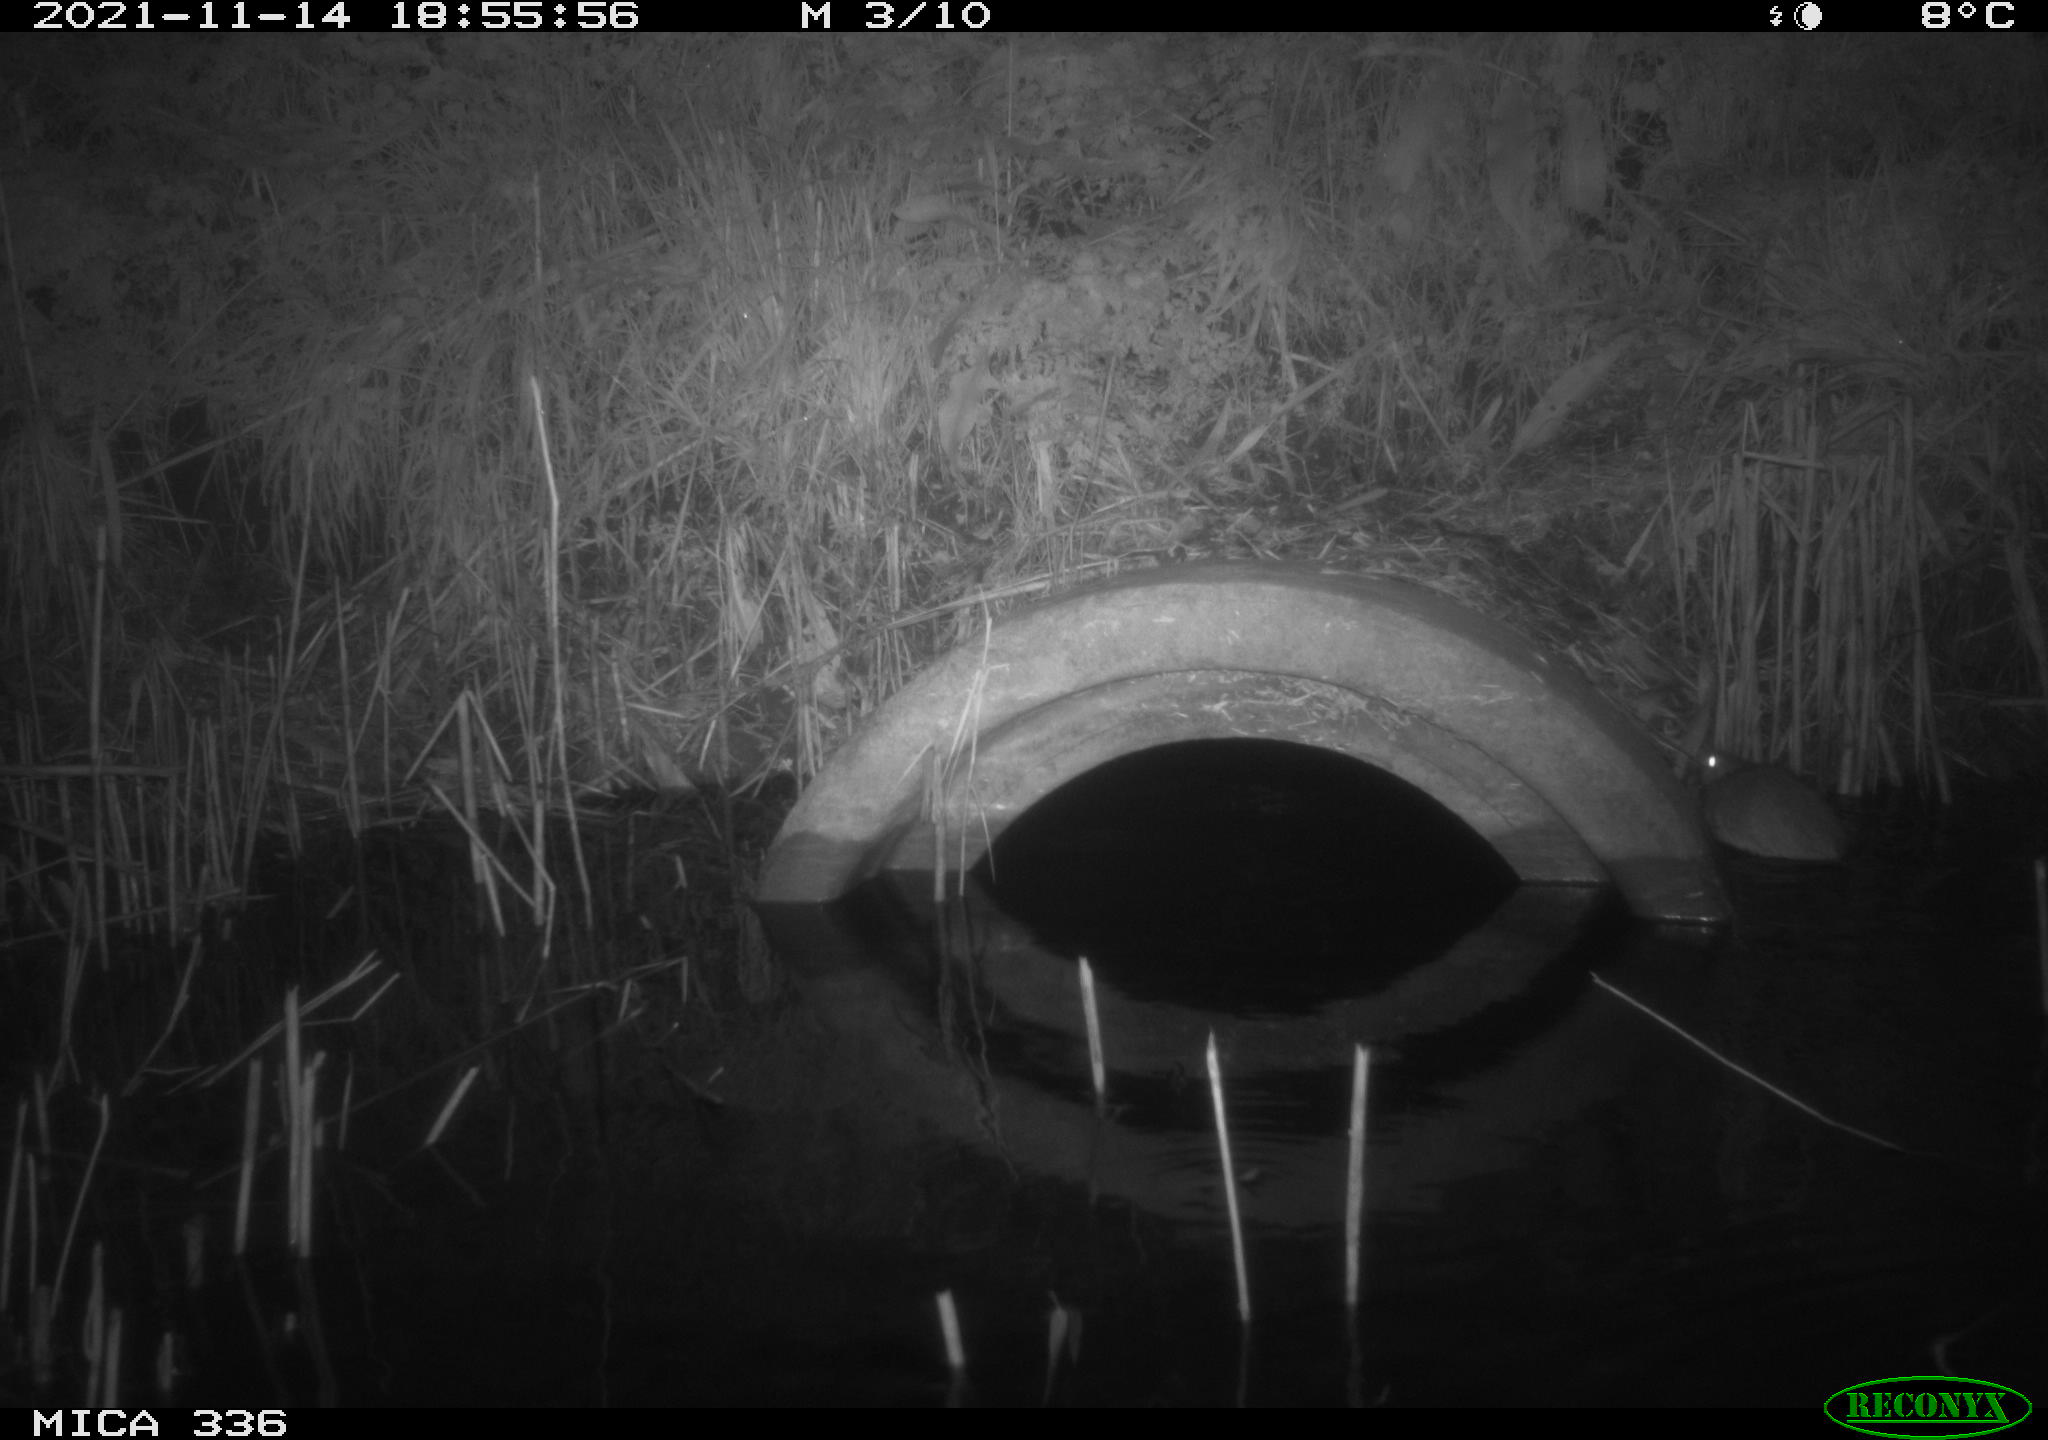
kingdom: Animalia
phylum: Chordata
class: Mammalia
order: Rodentia
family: Muridae
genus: Rattus
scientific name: Rattus norvegicus
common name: Brown rat
